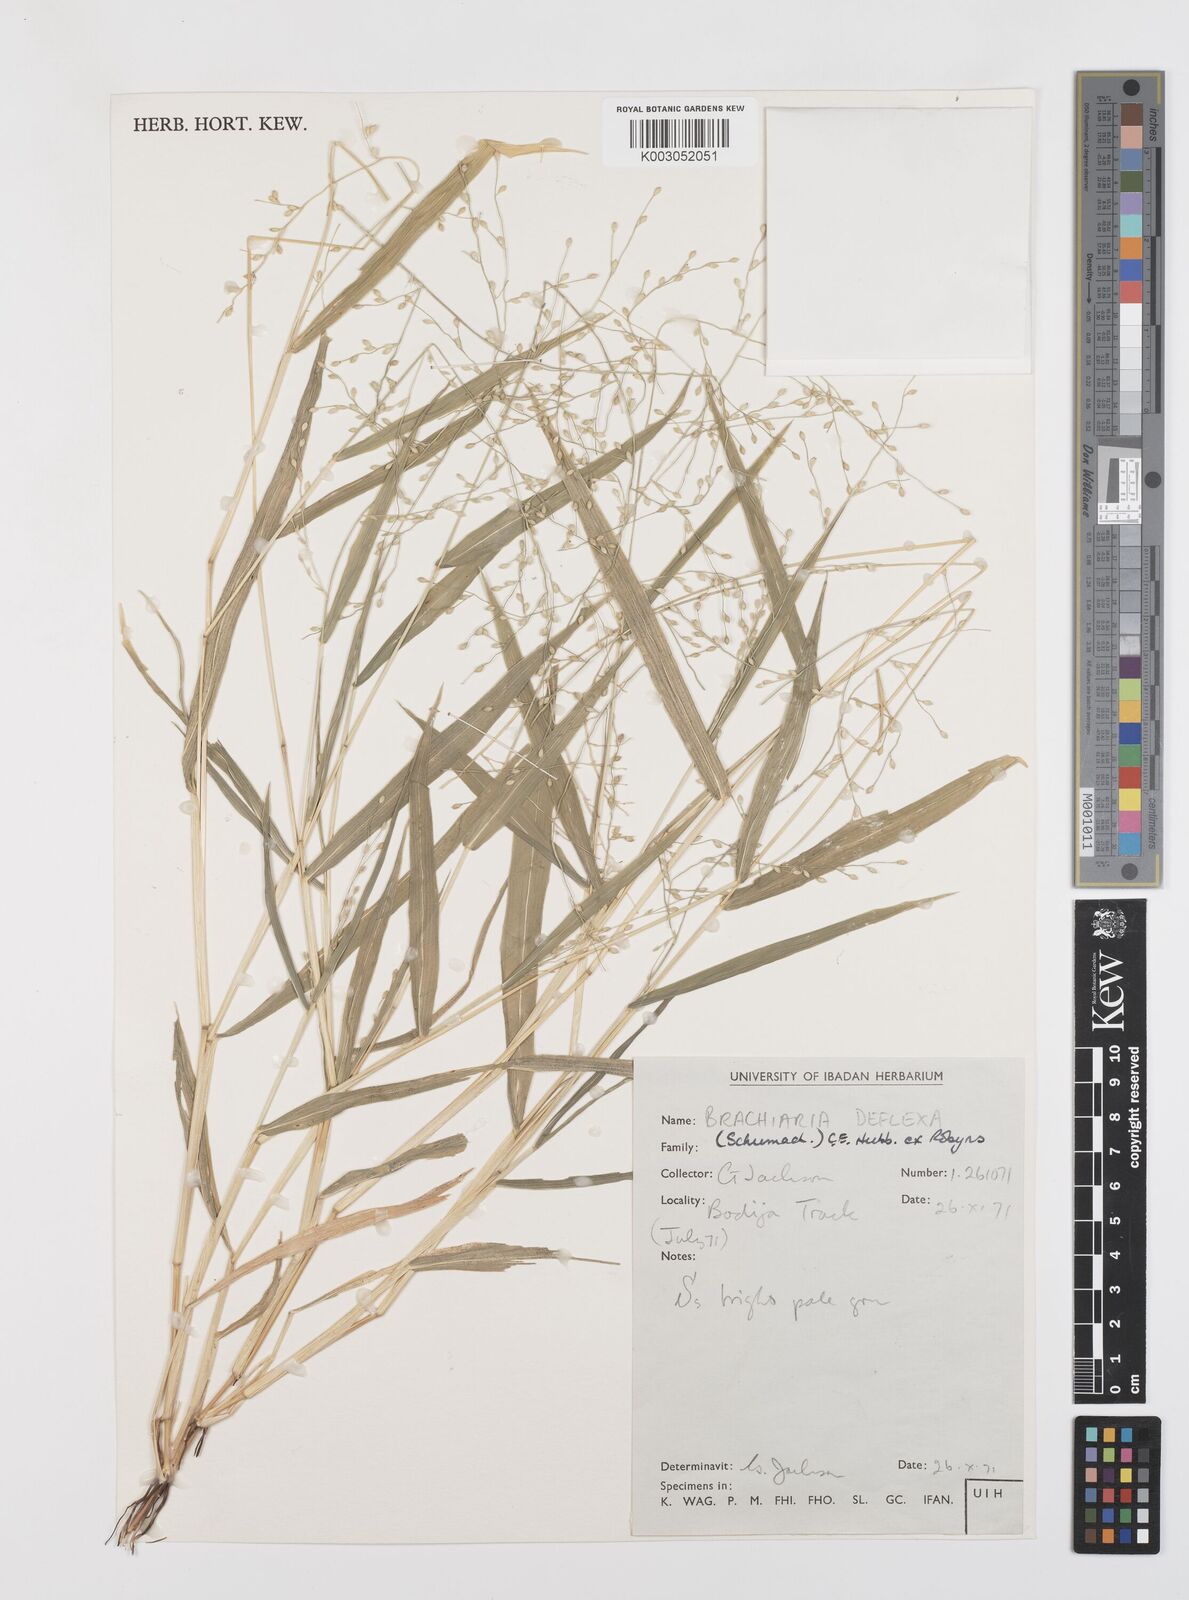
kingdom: Plantae
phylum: Tracheophyta
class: Liliopsida
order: Poales
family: Poaceae
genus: Urochloa
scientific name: Urochloa deflexa
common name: Guinea millet
